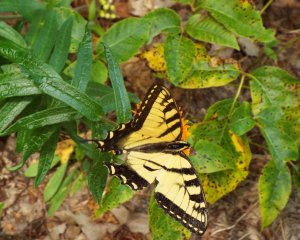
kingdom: Animalia
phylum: Arthropoda
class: Insecta
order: Lepidoptera
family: Papilionidae
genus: Pterourus
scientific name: Pterourus glaucus
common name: Eastern Tiger Swallowtail
